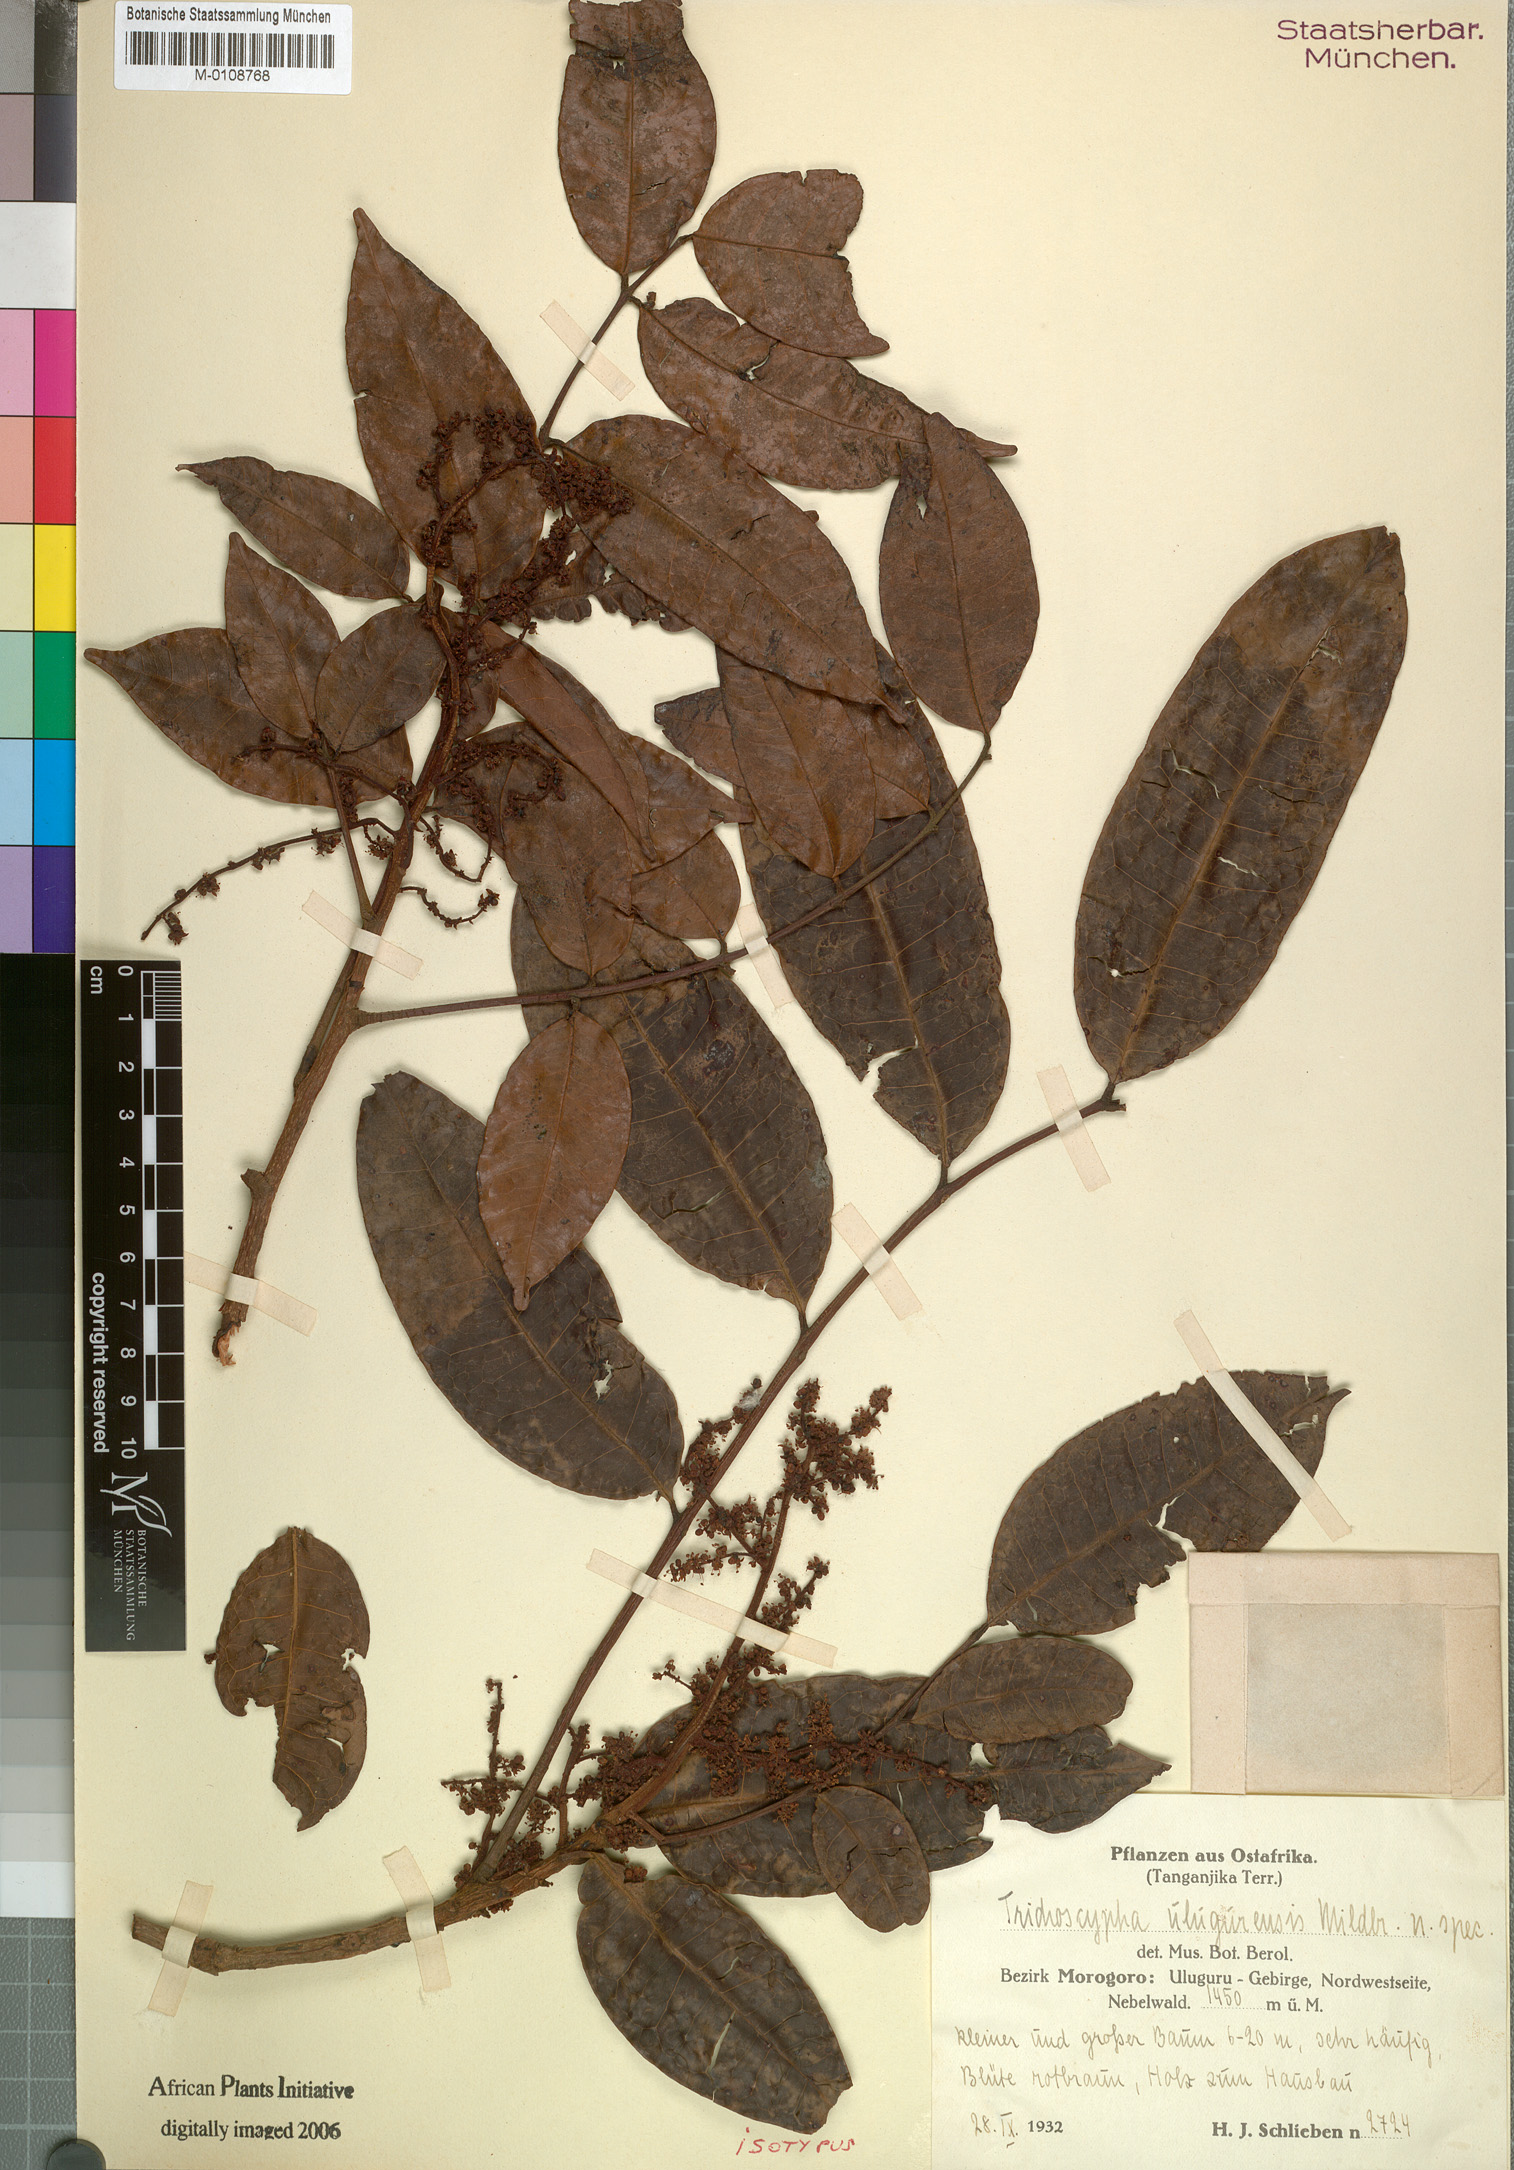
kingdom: Plantae
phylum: Tracheophyta
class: Magnoliopsida
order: Sapindales
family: Anacardiaceae
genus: Trichoscypha
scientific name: Trichoscypha lucens
